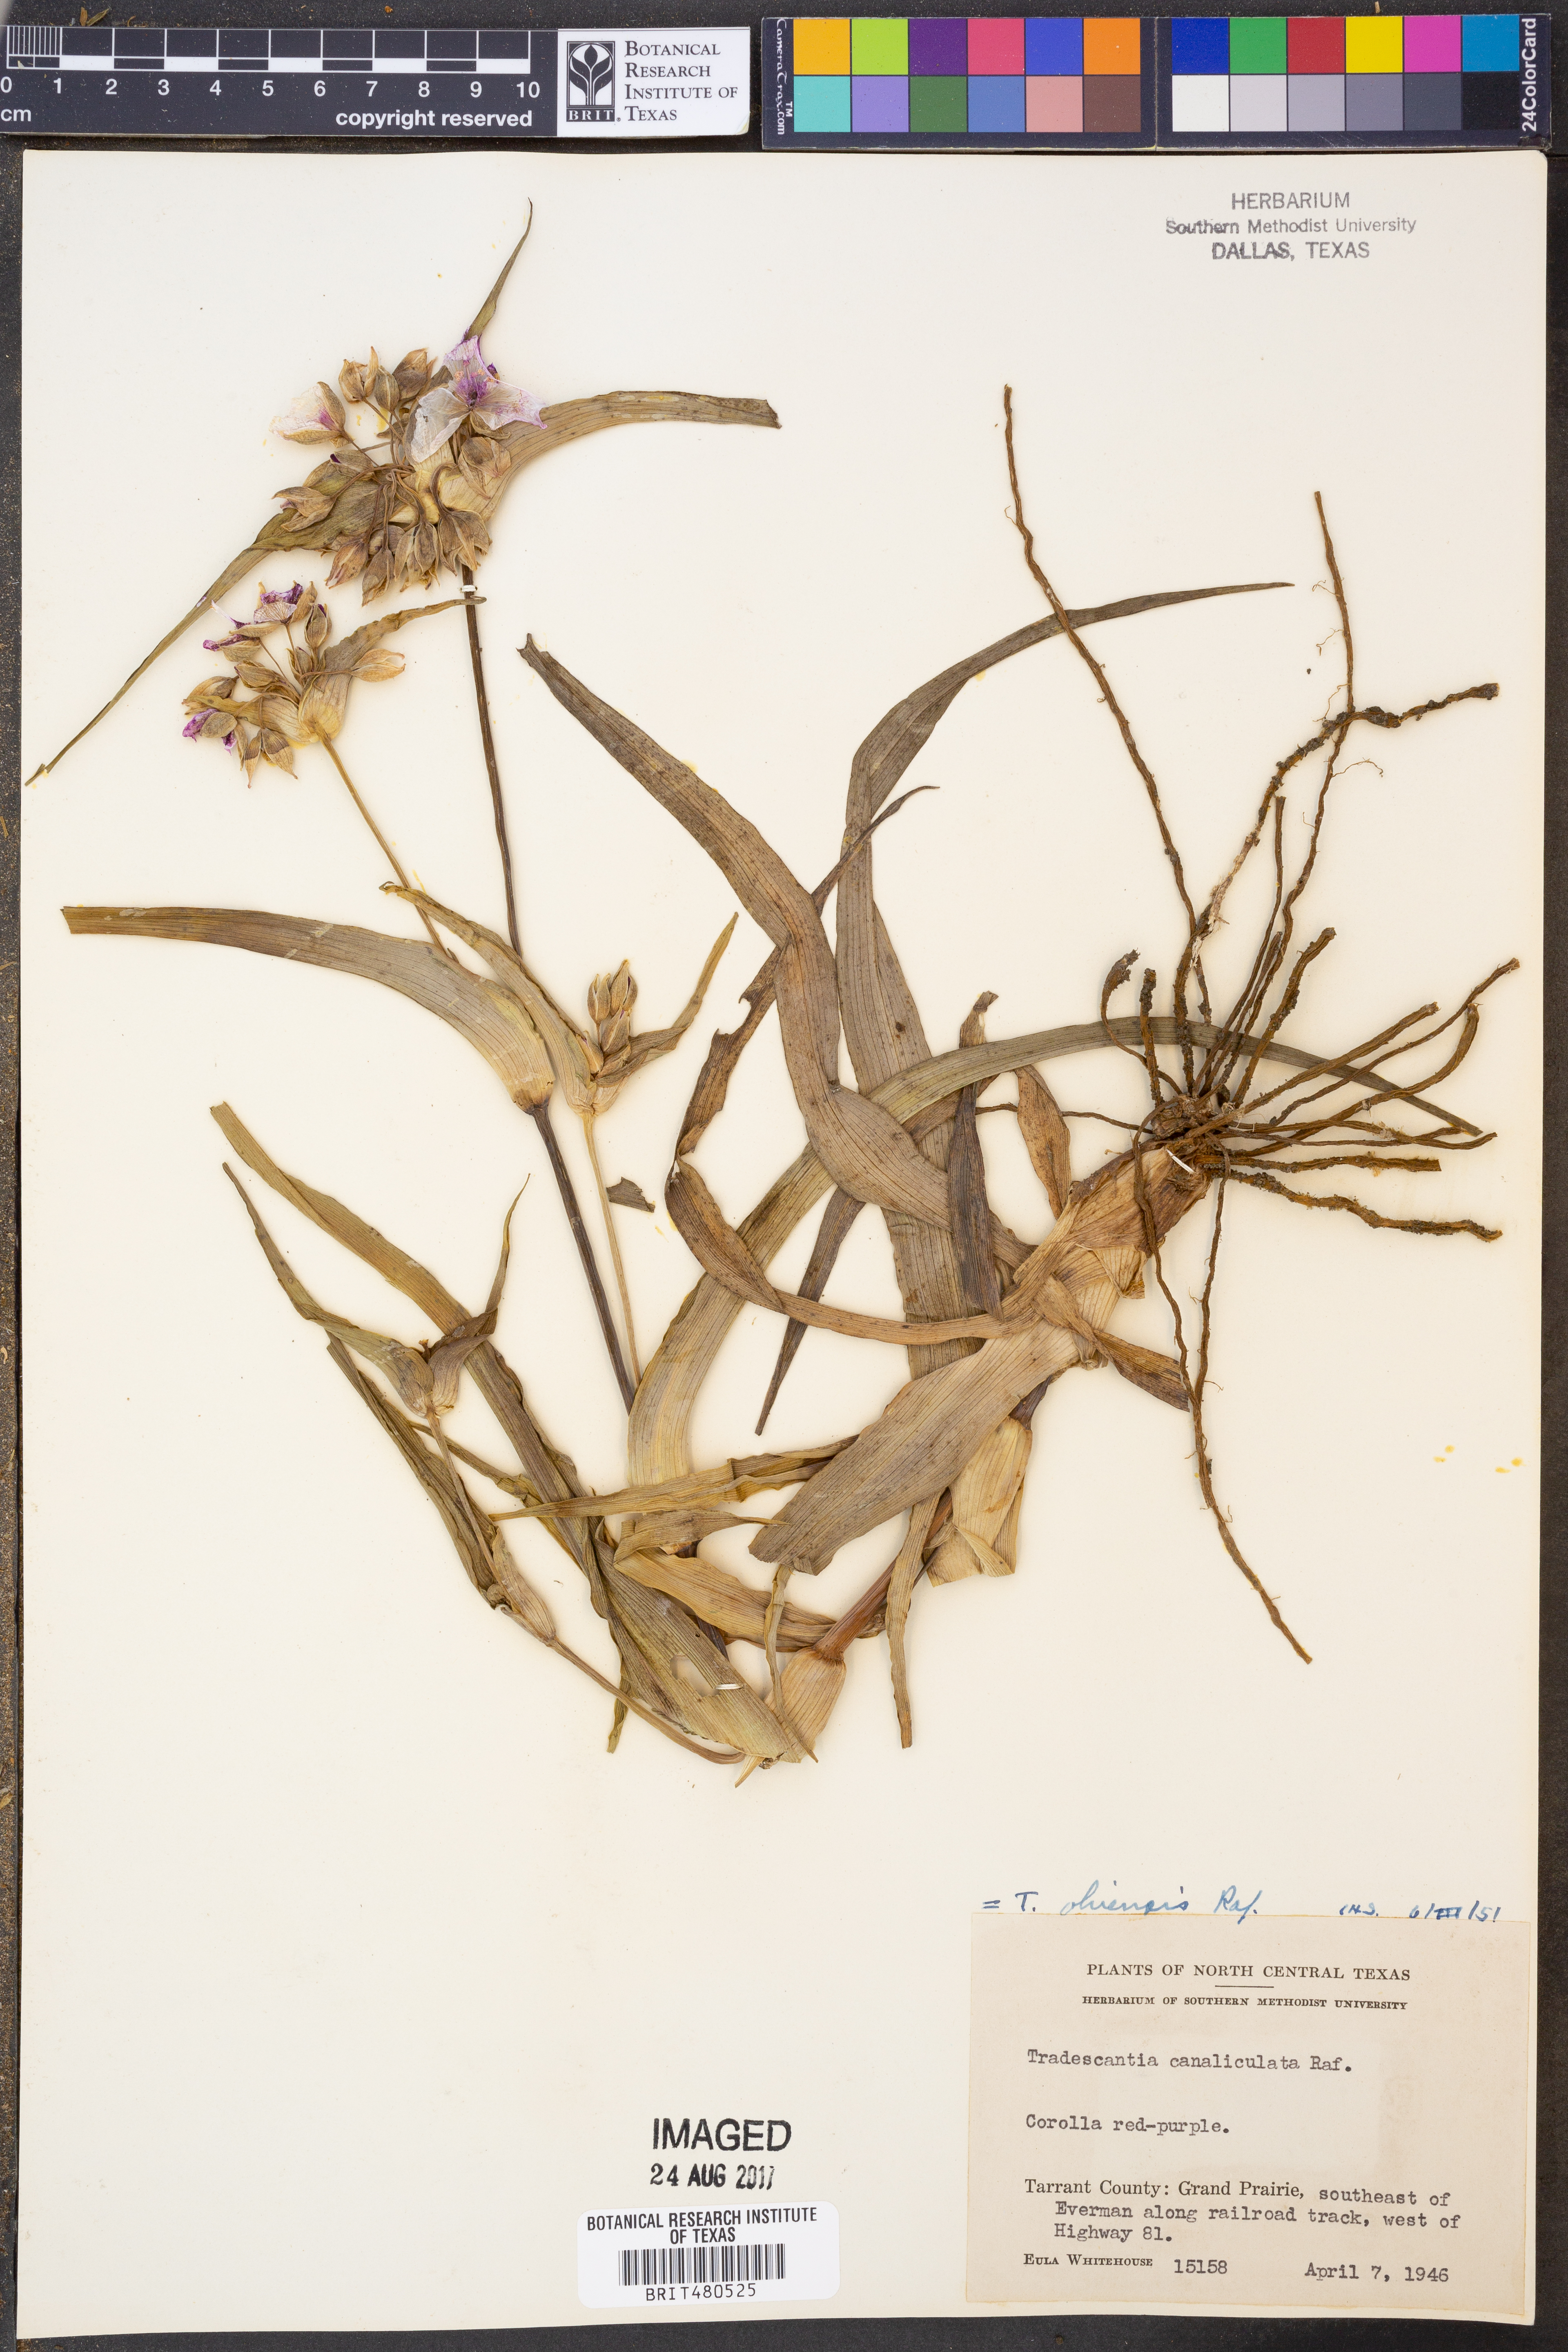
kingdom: Plantae
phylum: Tracheophyta
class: Liliopsida
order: Commelinales
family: Commelinaceae
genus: Tradescantia
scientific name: Tradescantia ohiensis
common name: Ohio spiderwort
